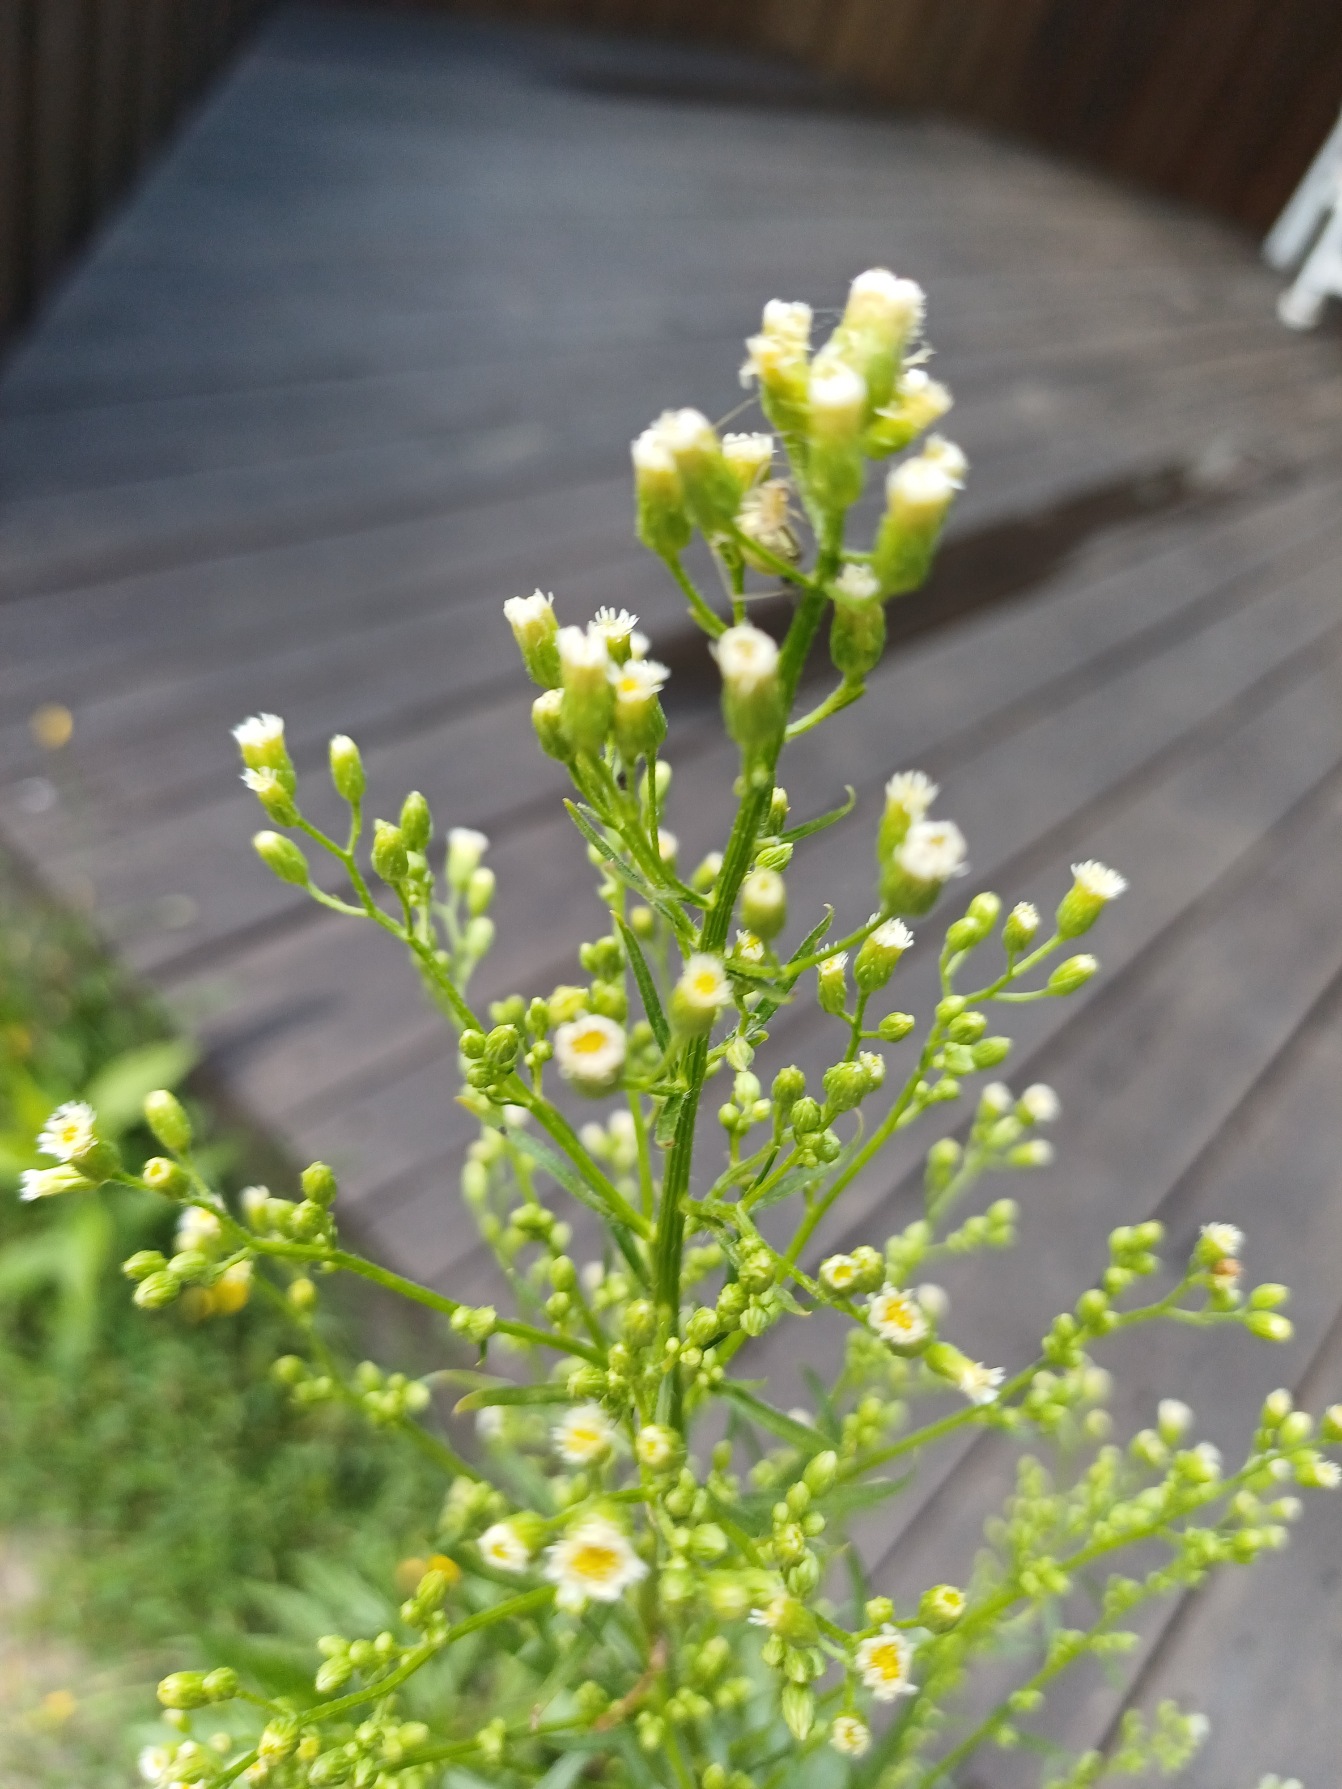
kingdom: Plantae
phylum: Tracheophyta
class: Magnoliopsida
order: Asterales
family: Asteraceae
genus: Erigeron
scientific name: Erigeron canadensis
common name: Kanadisk bakkestjerne
